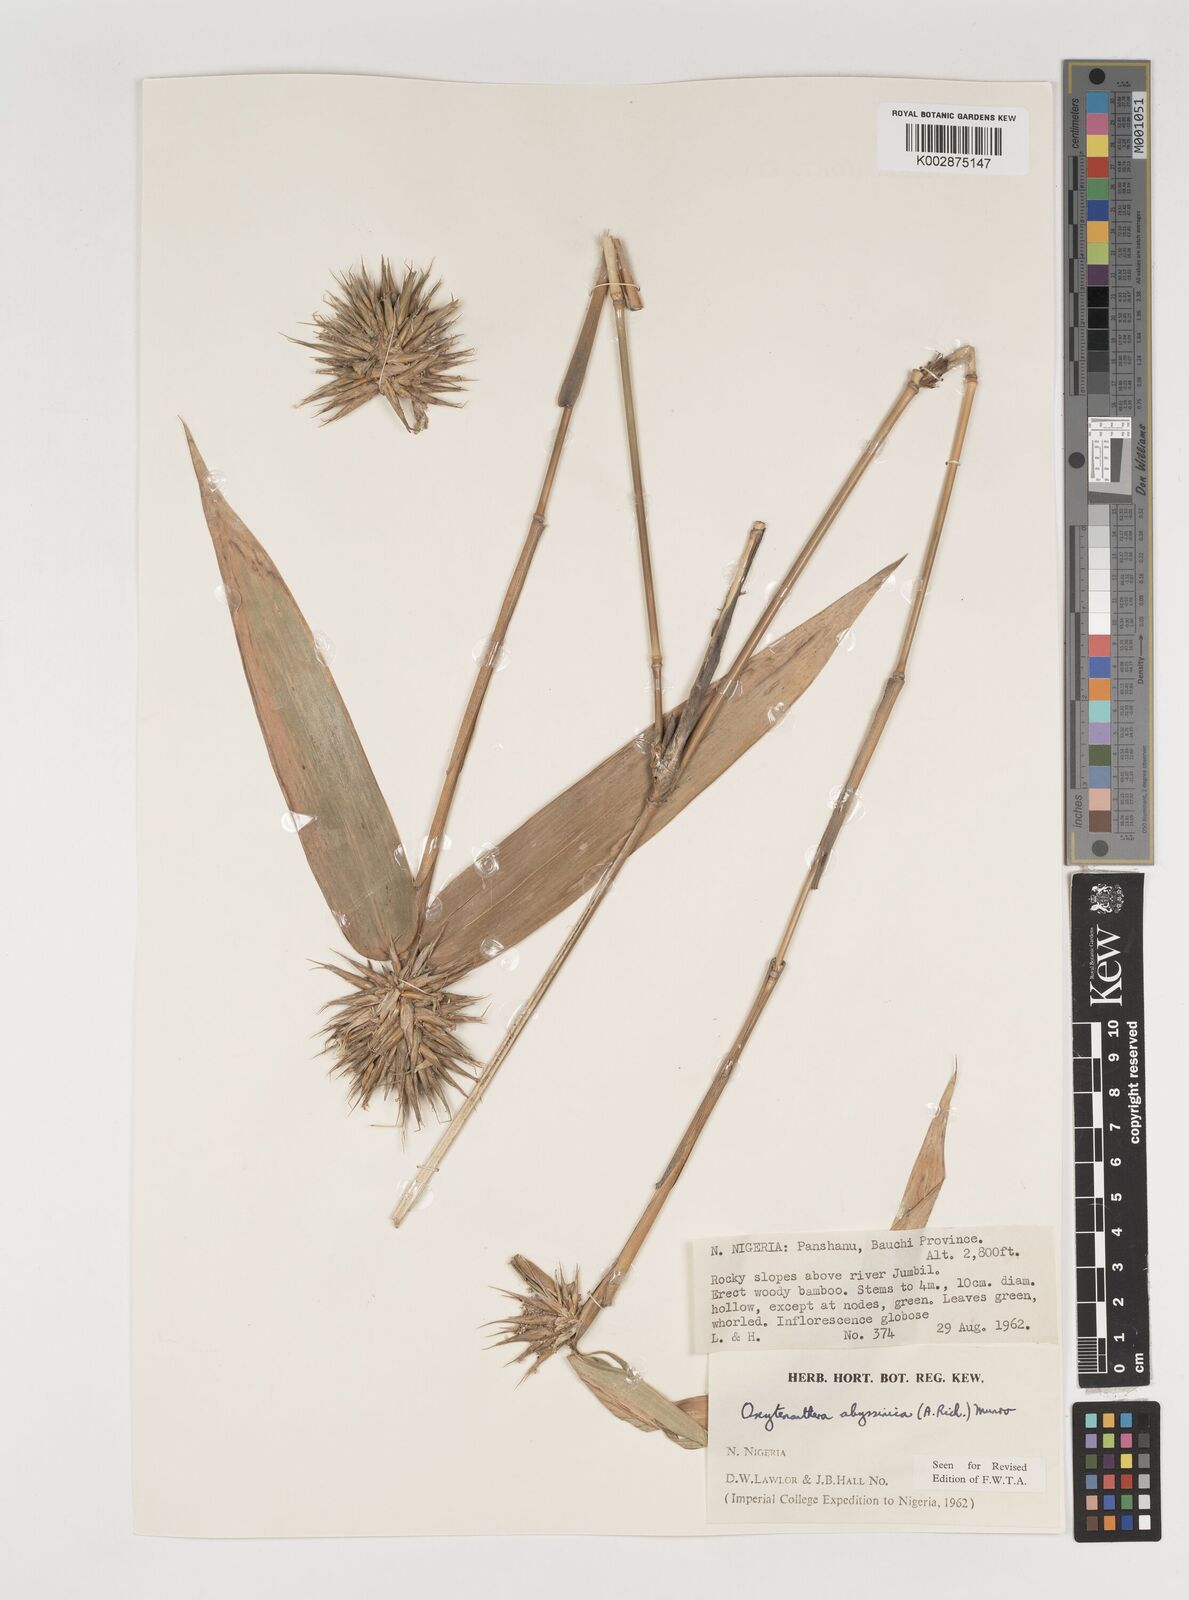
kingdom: Plantae
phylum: Tracheophyta
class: Liliopsida
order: Poales
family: Poaceae
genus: Oxytenanthera
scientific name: Oxytenanthera abyssinica
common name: Wine bamboo
